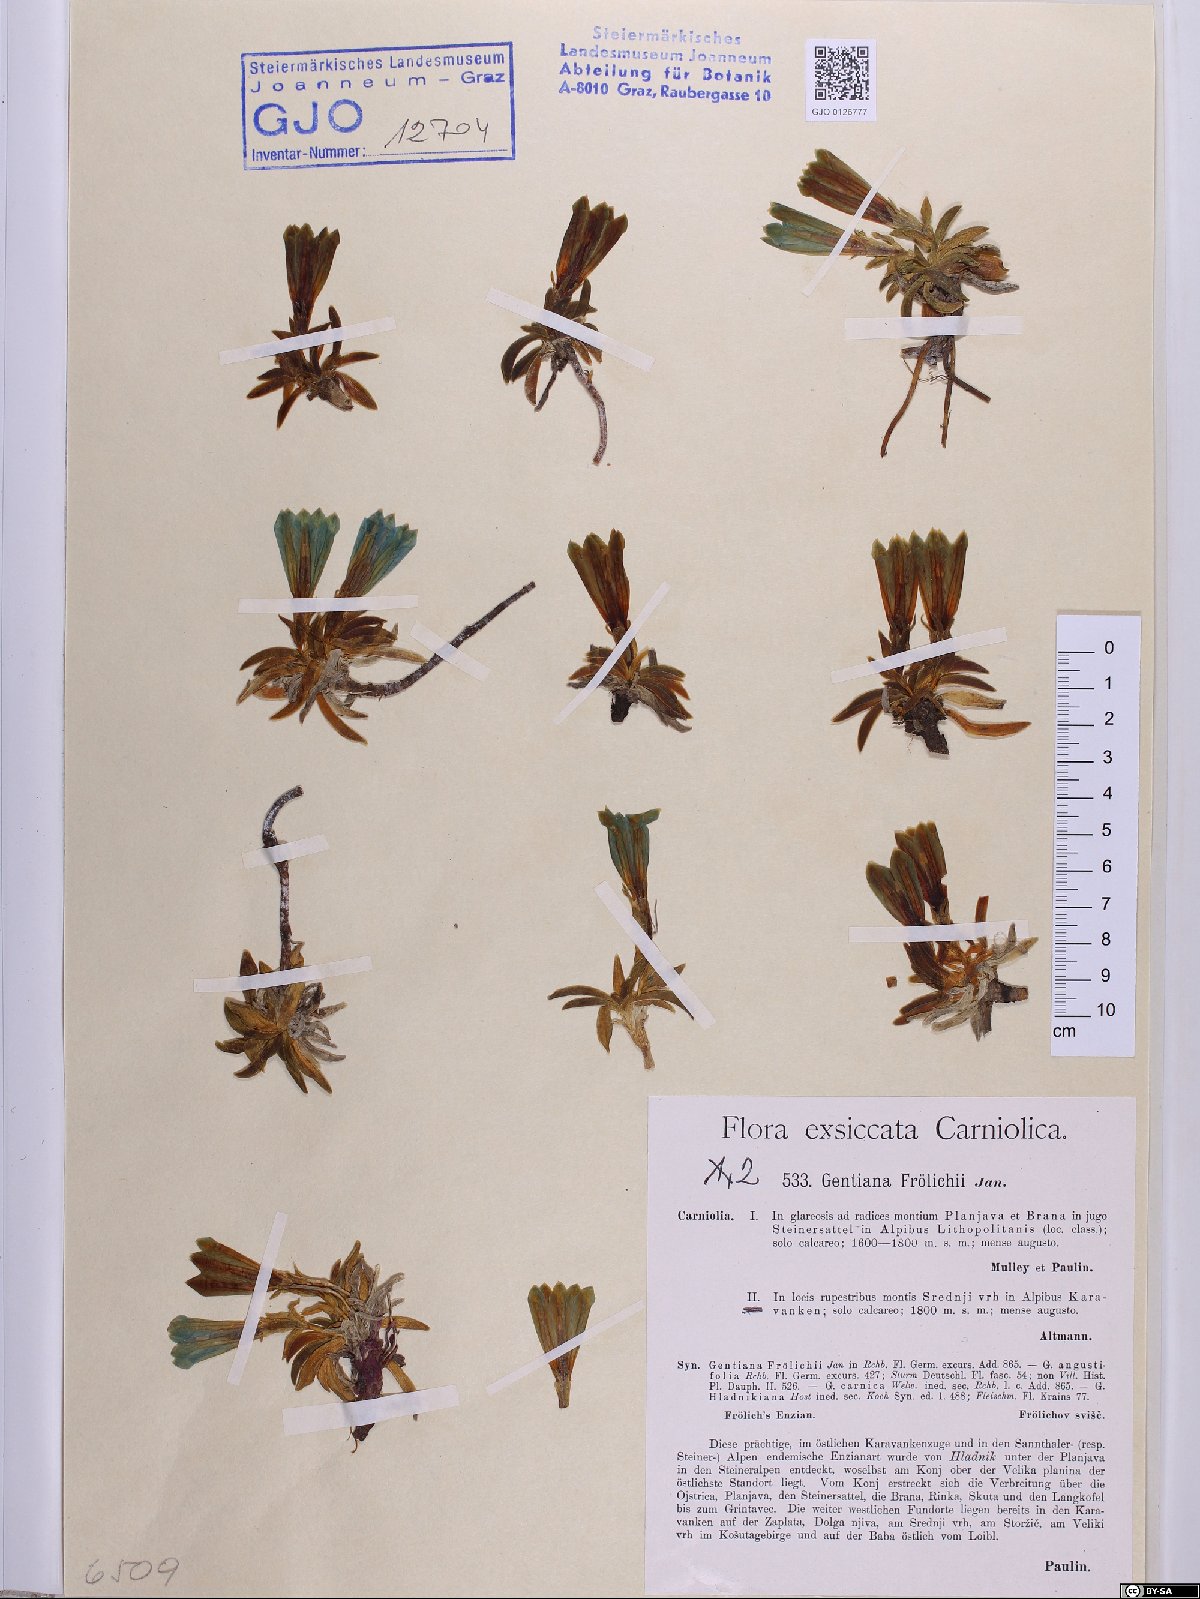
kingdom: Plantae
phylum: Tracheophyta
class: Magnoliopsida
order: Gentianales
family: Gentianaceae
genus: Gentiana
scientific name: Gentiana froelichii
